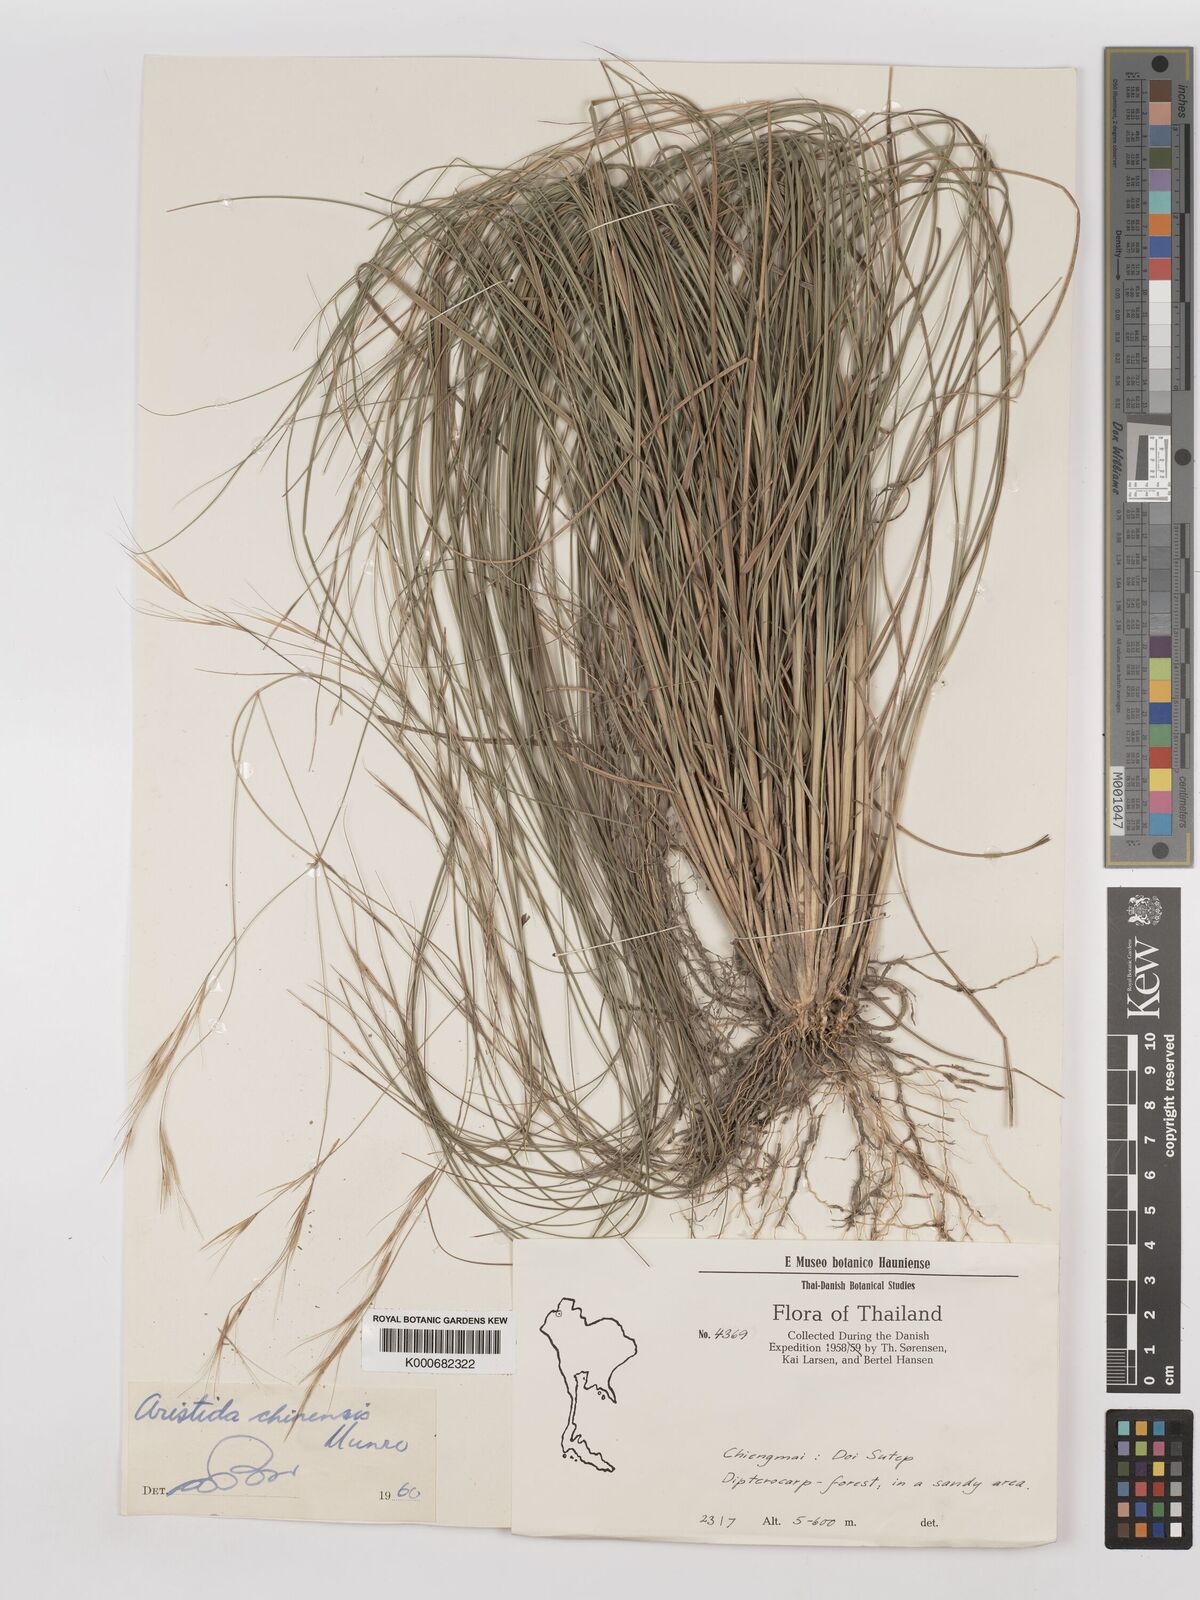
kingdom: Plantae
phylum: Tracheophyta
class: Liliopsida
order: Poales
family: Poaceae
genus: Aristida
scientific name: Aristida culionensis
